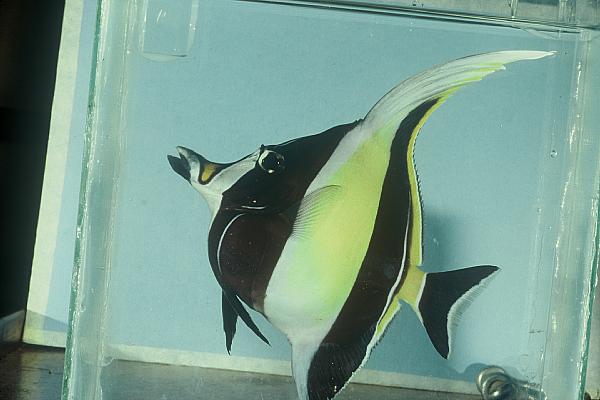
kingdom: Animalia
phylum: Chordata
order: Perciformes
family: Zanclidae
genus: Zanclus
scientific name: Zanclus cornutus
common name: Moorish idol
